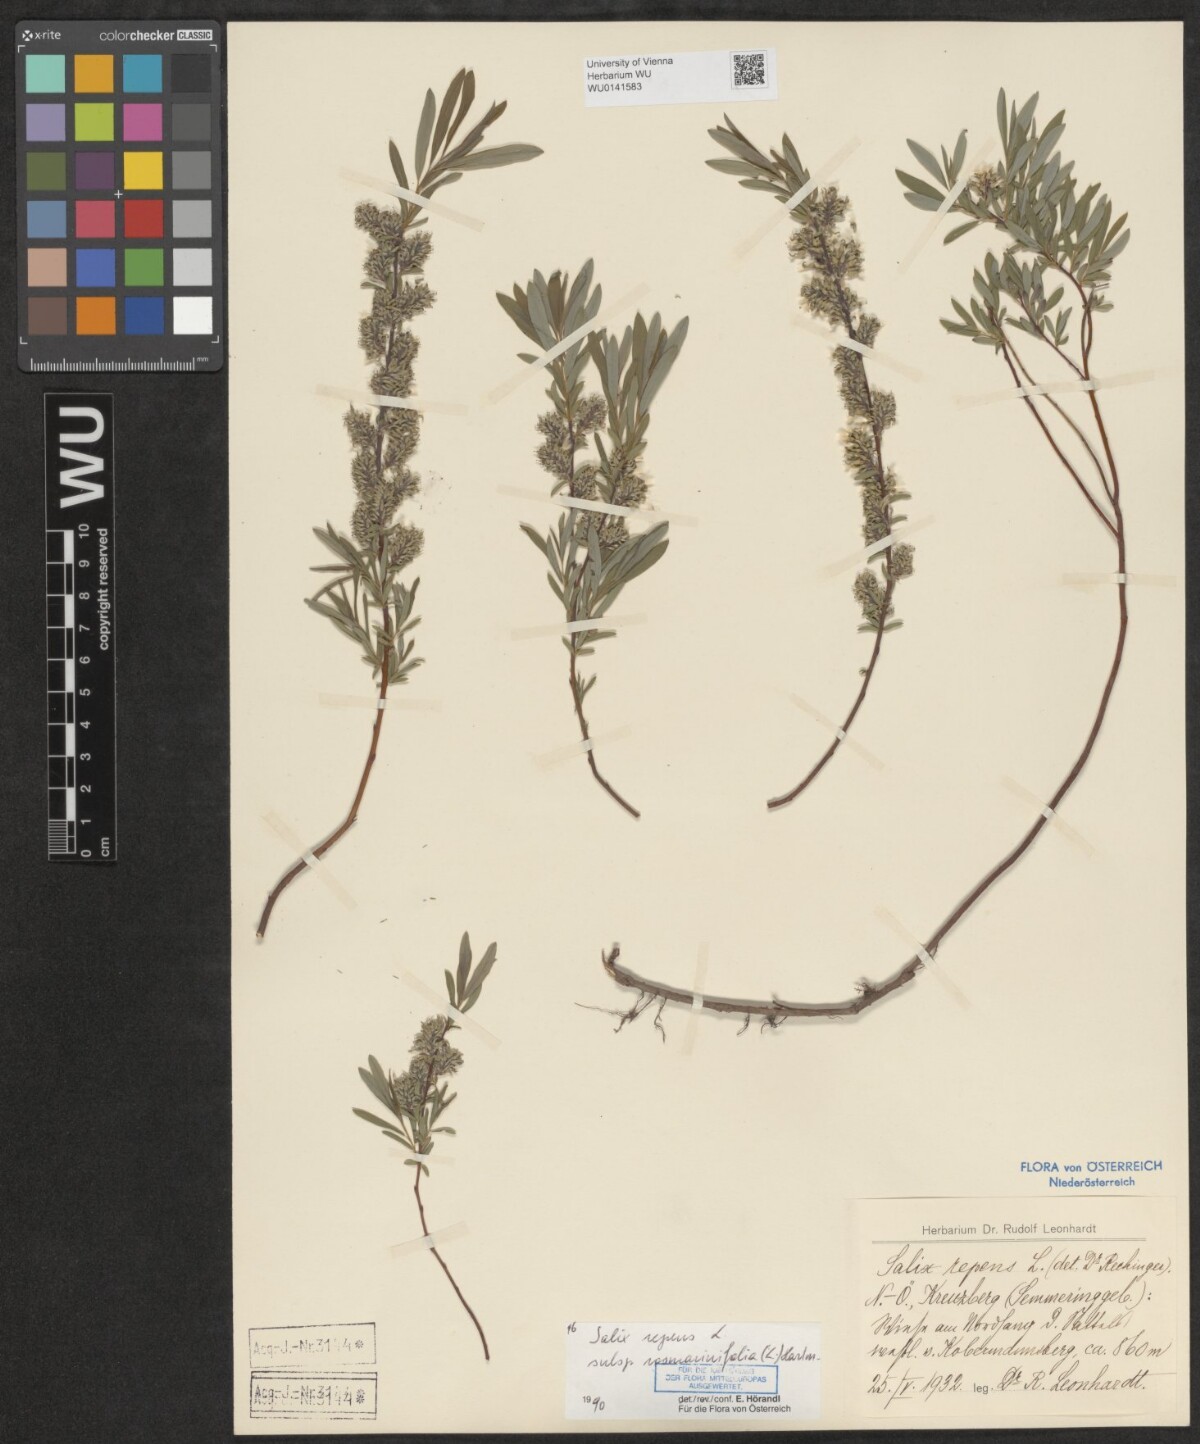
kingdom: Plantae
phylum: Tracheophyta
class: Magnoliopsida
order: Malpighiales
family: Salicaceae
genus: Salix
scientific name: Salix repens
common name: Creeping willow
